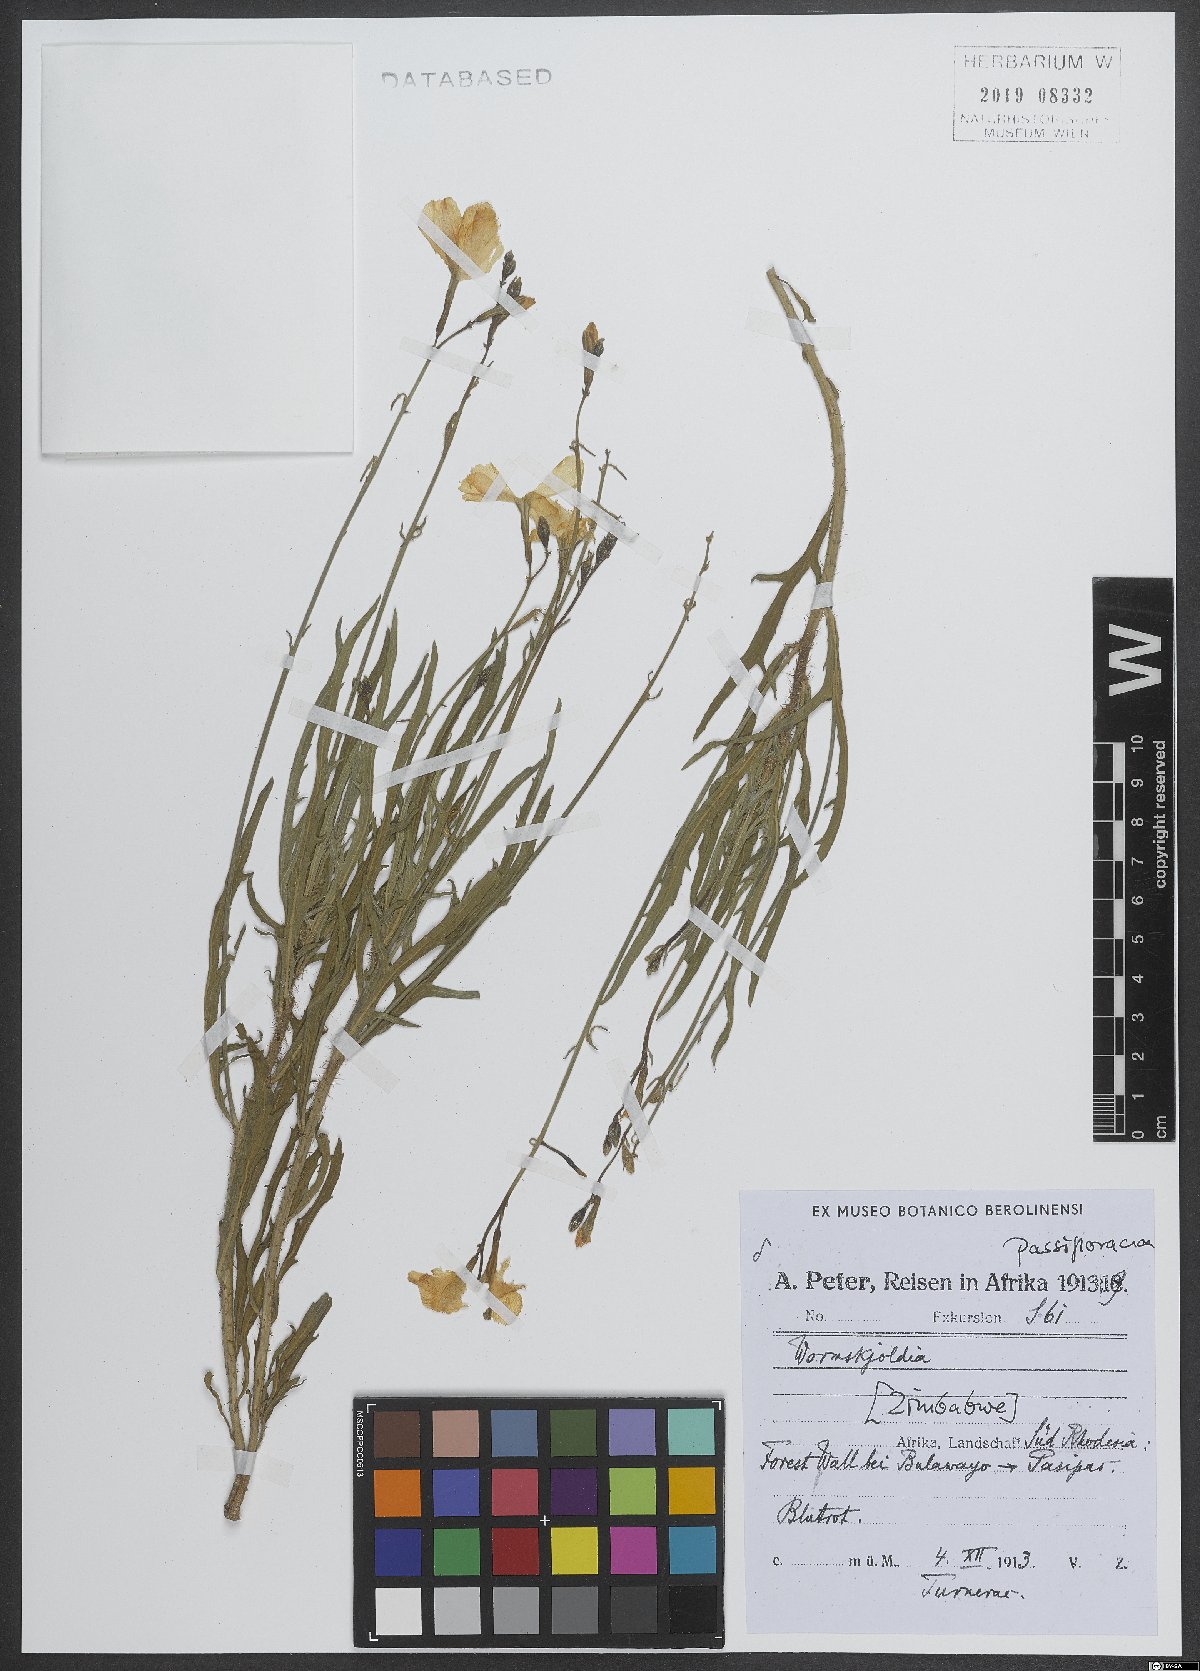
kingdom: Plantae
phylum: Tracheophyta
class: Magnoliopsida
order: Malpighiales
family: Turneraceae
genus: Tricliceras
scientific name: Tricliceras
